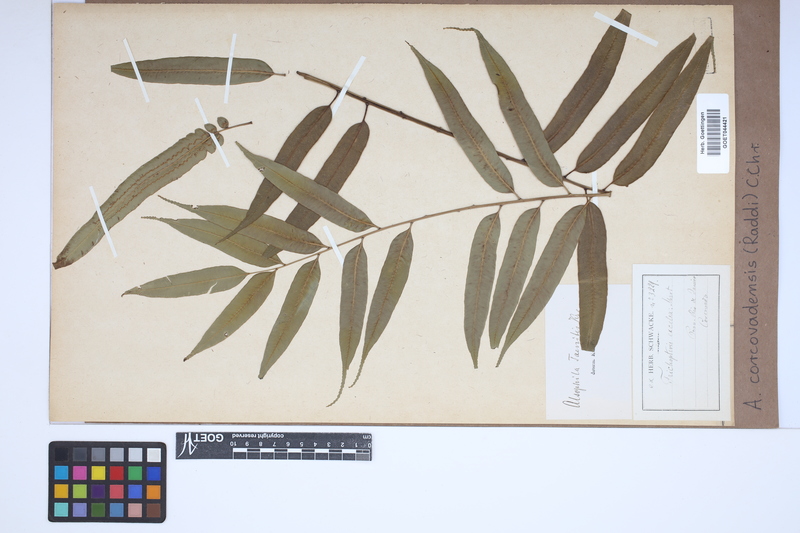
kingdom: Plantae
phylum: Tracheophyta
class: Polypodiopsida
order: Cyatheales
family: Cyatheaceae
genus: Cyathea
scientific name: Cyathea corcovadensis
